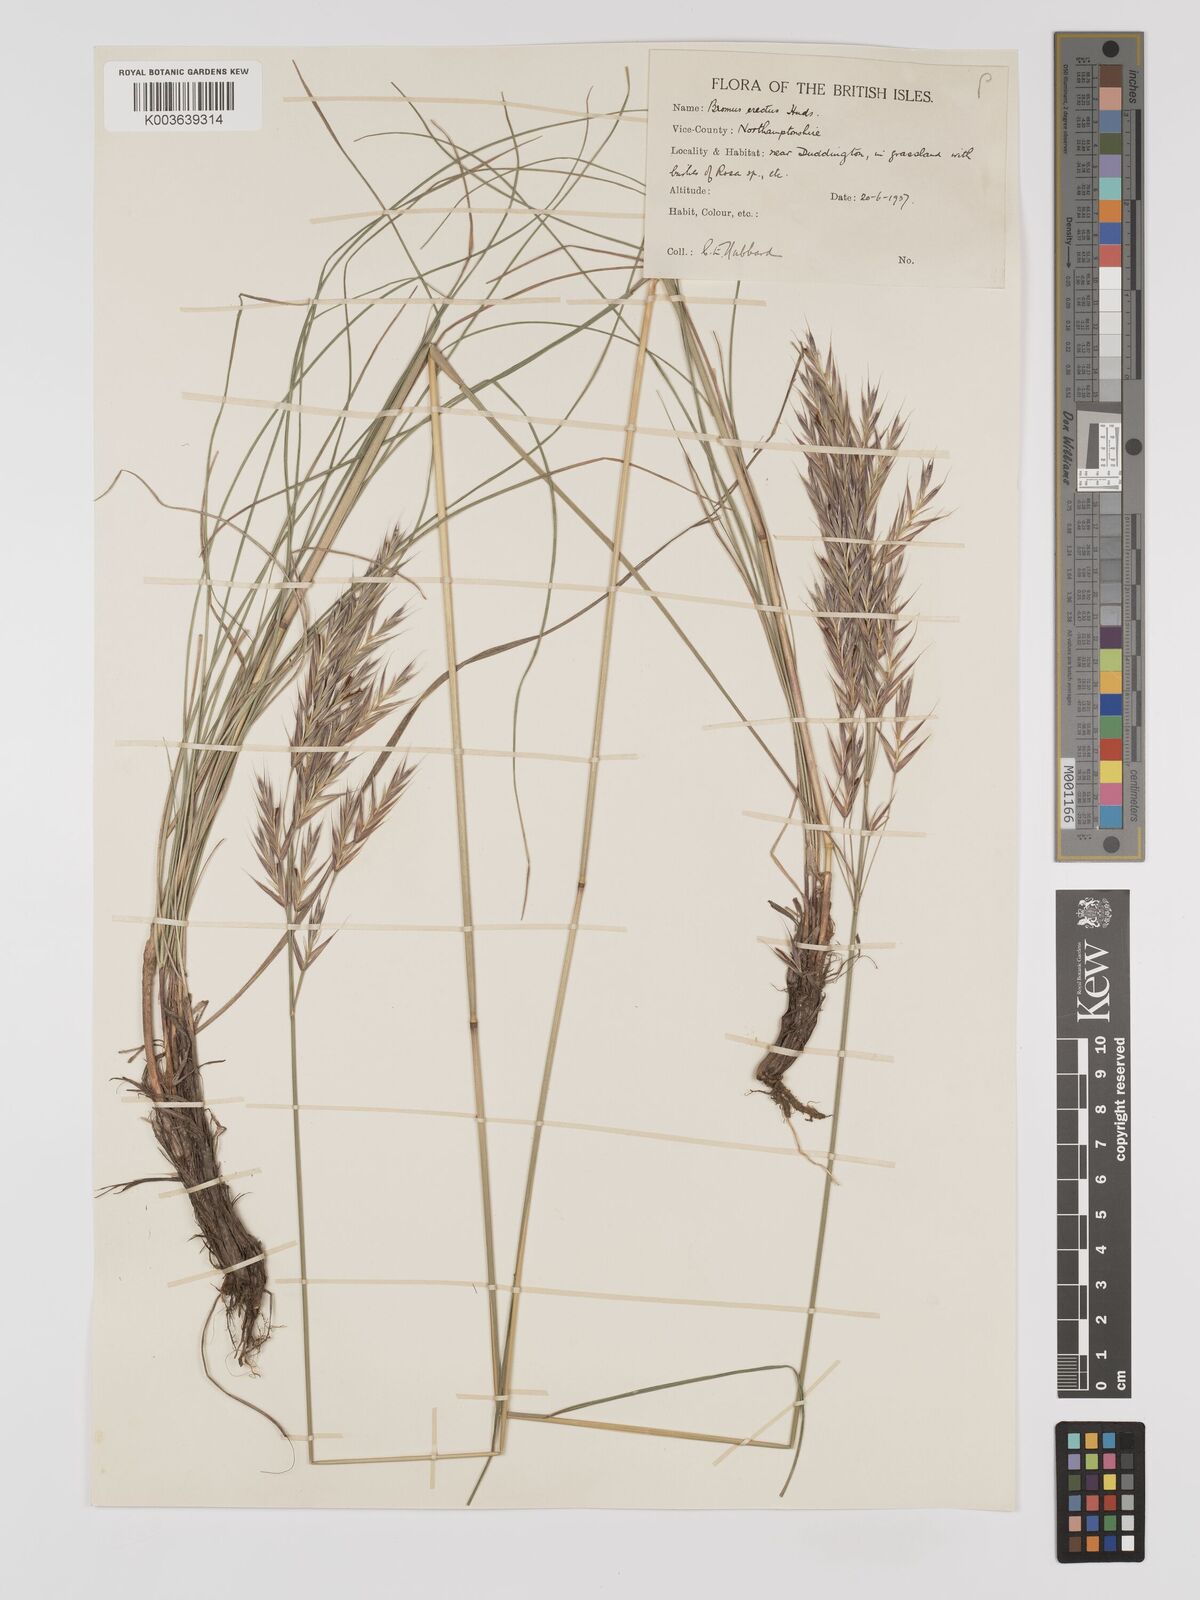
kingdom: Plantae
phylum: Tracheophyta
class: Liliopsida
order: Poales
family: Poaceae
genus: Bromus
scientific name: Bromus erectus
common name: Erect brome
